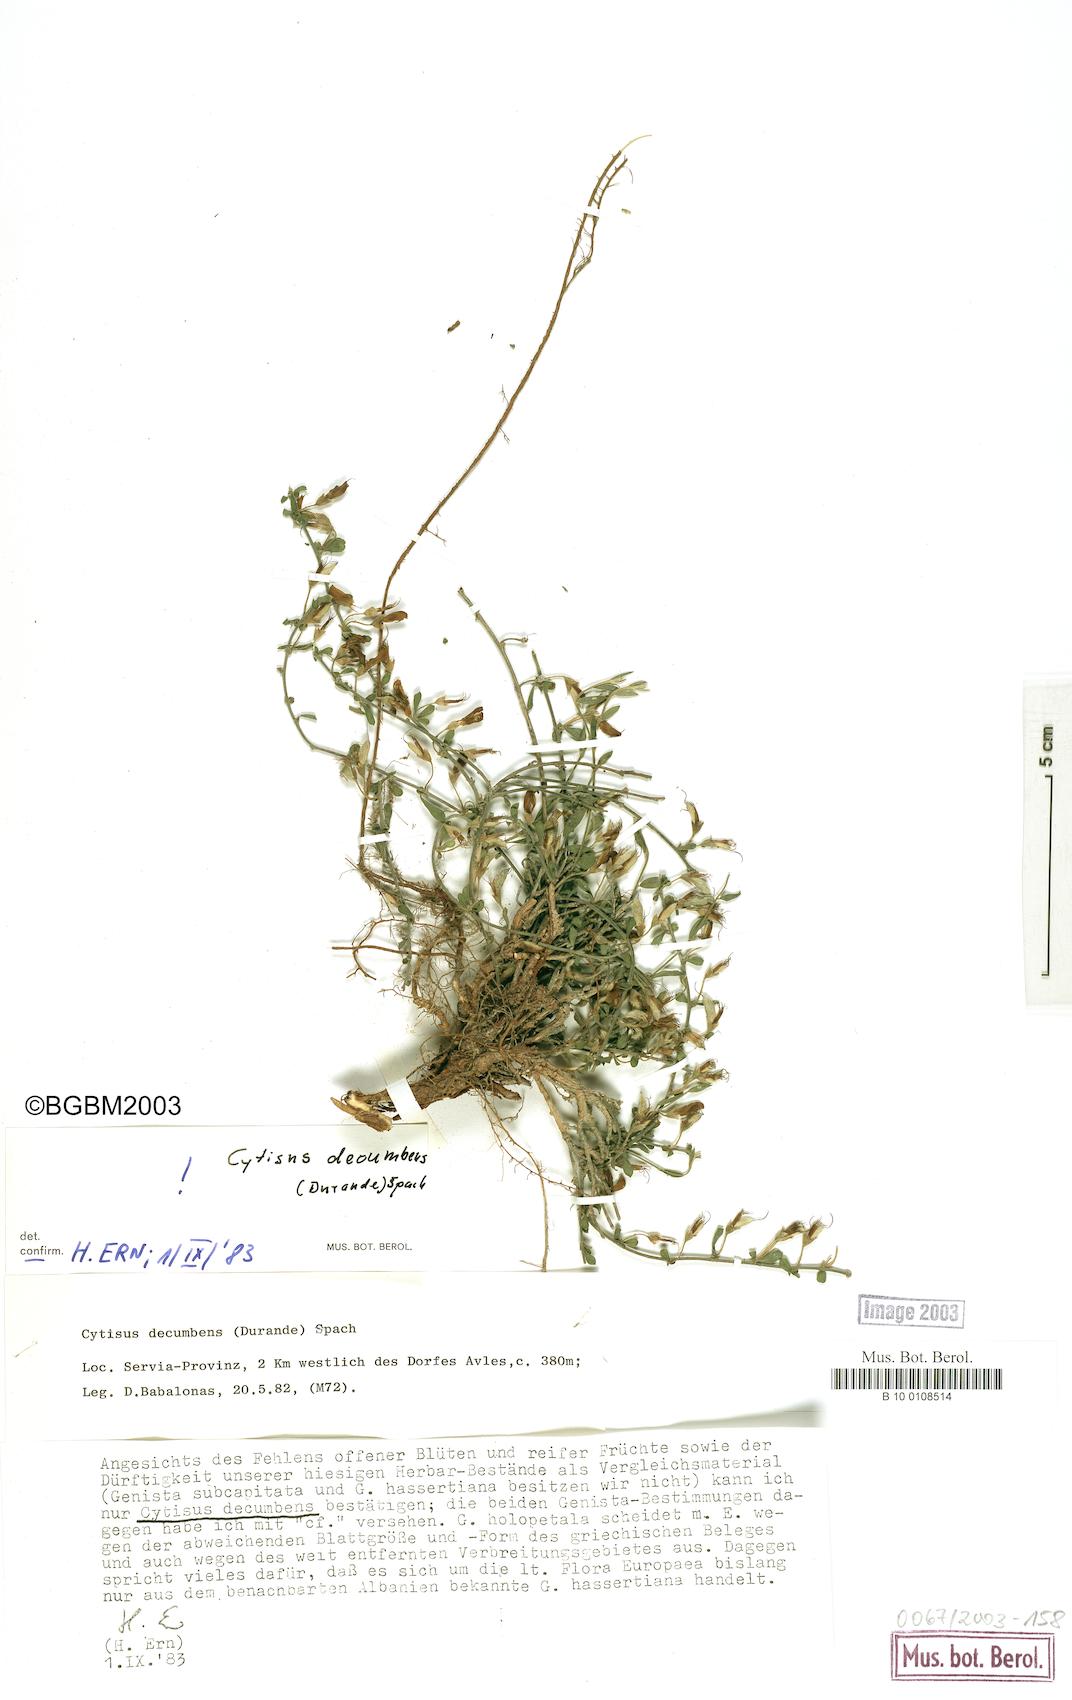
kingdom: Plantae
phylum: Tracheophyta
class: Magnoliopsida
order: Fabales
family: Fabaceae
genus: Cytisus
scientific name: Cytisus decumbens
